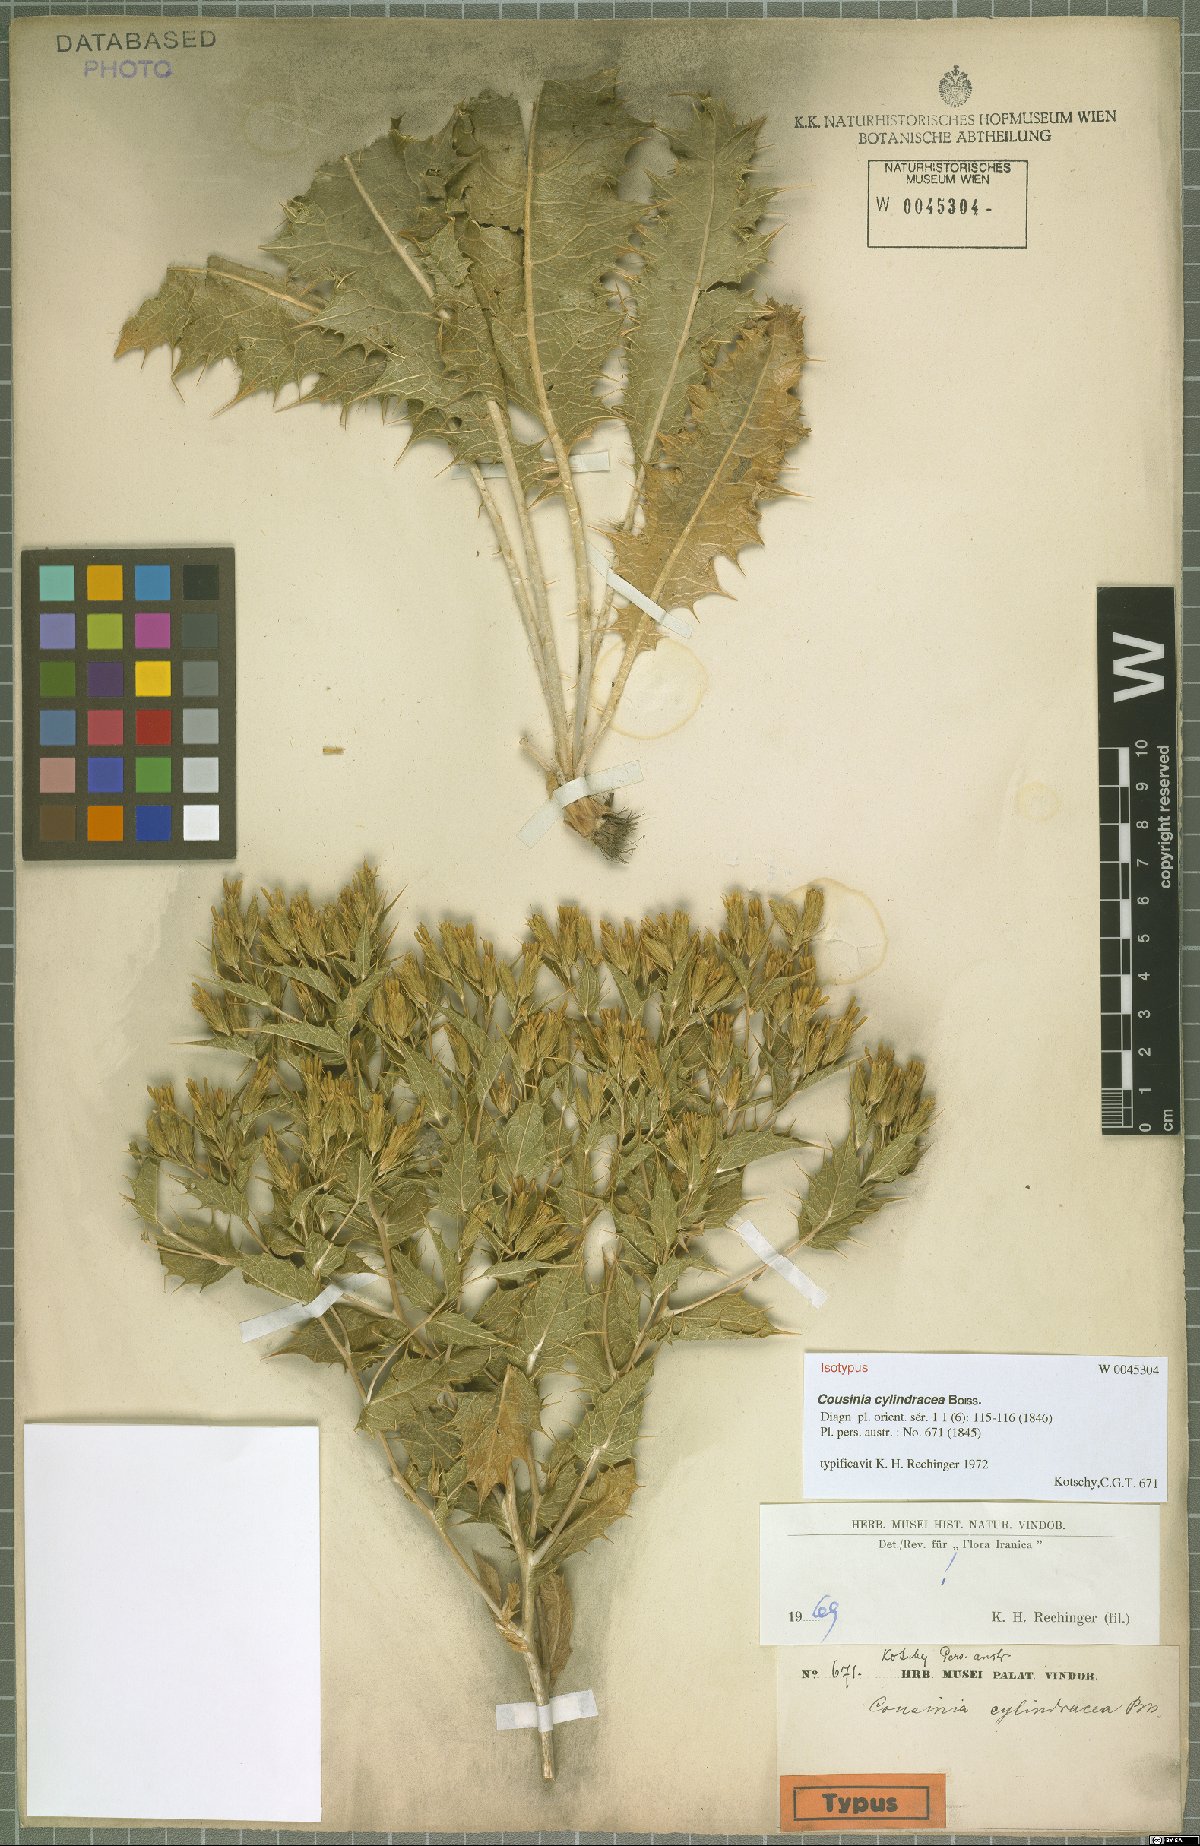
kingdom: Plantae
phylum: Tracheophyta
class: Magnoliopsida
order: Asterales
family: Asteraceae
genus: Cousinia
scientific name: Cousinia cylindracea
